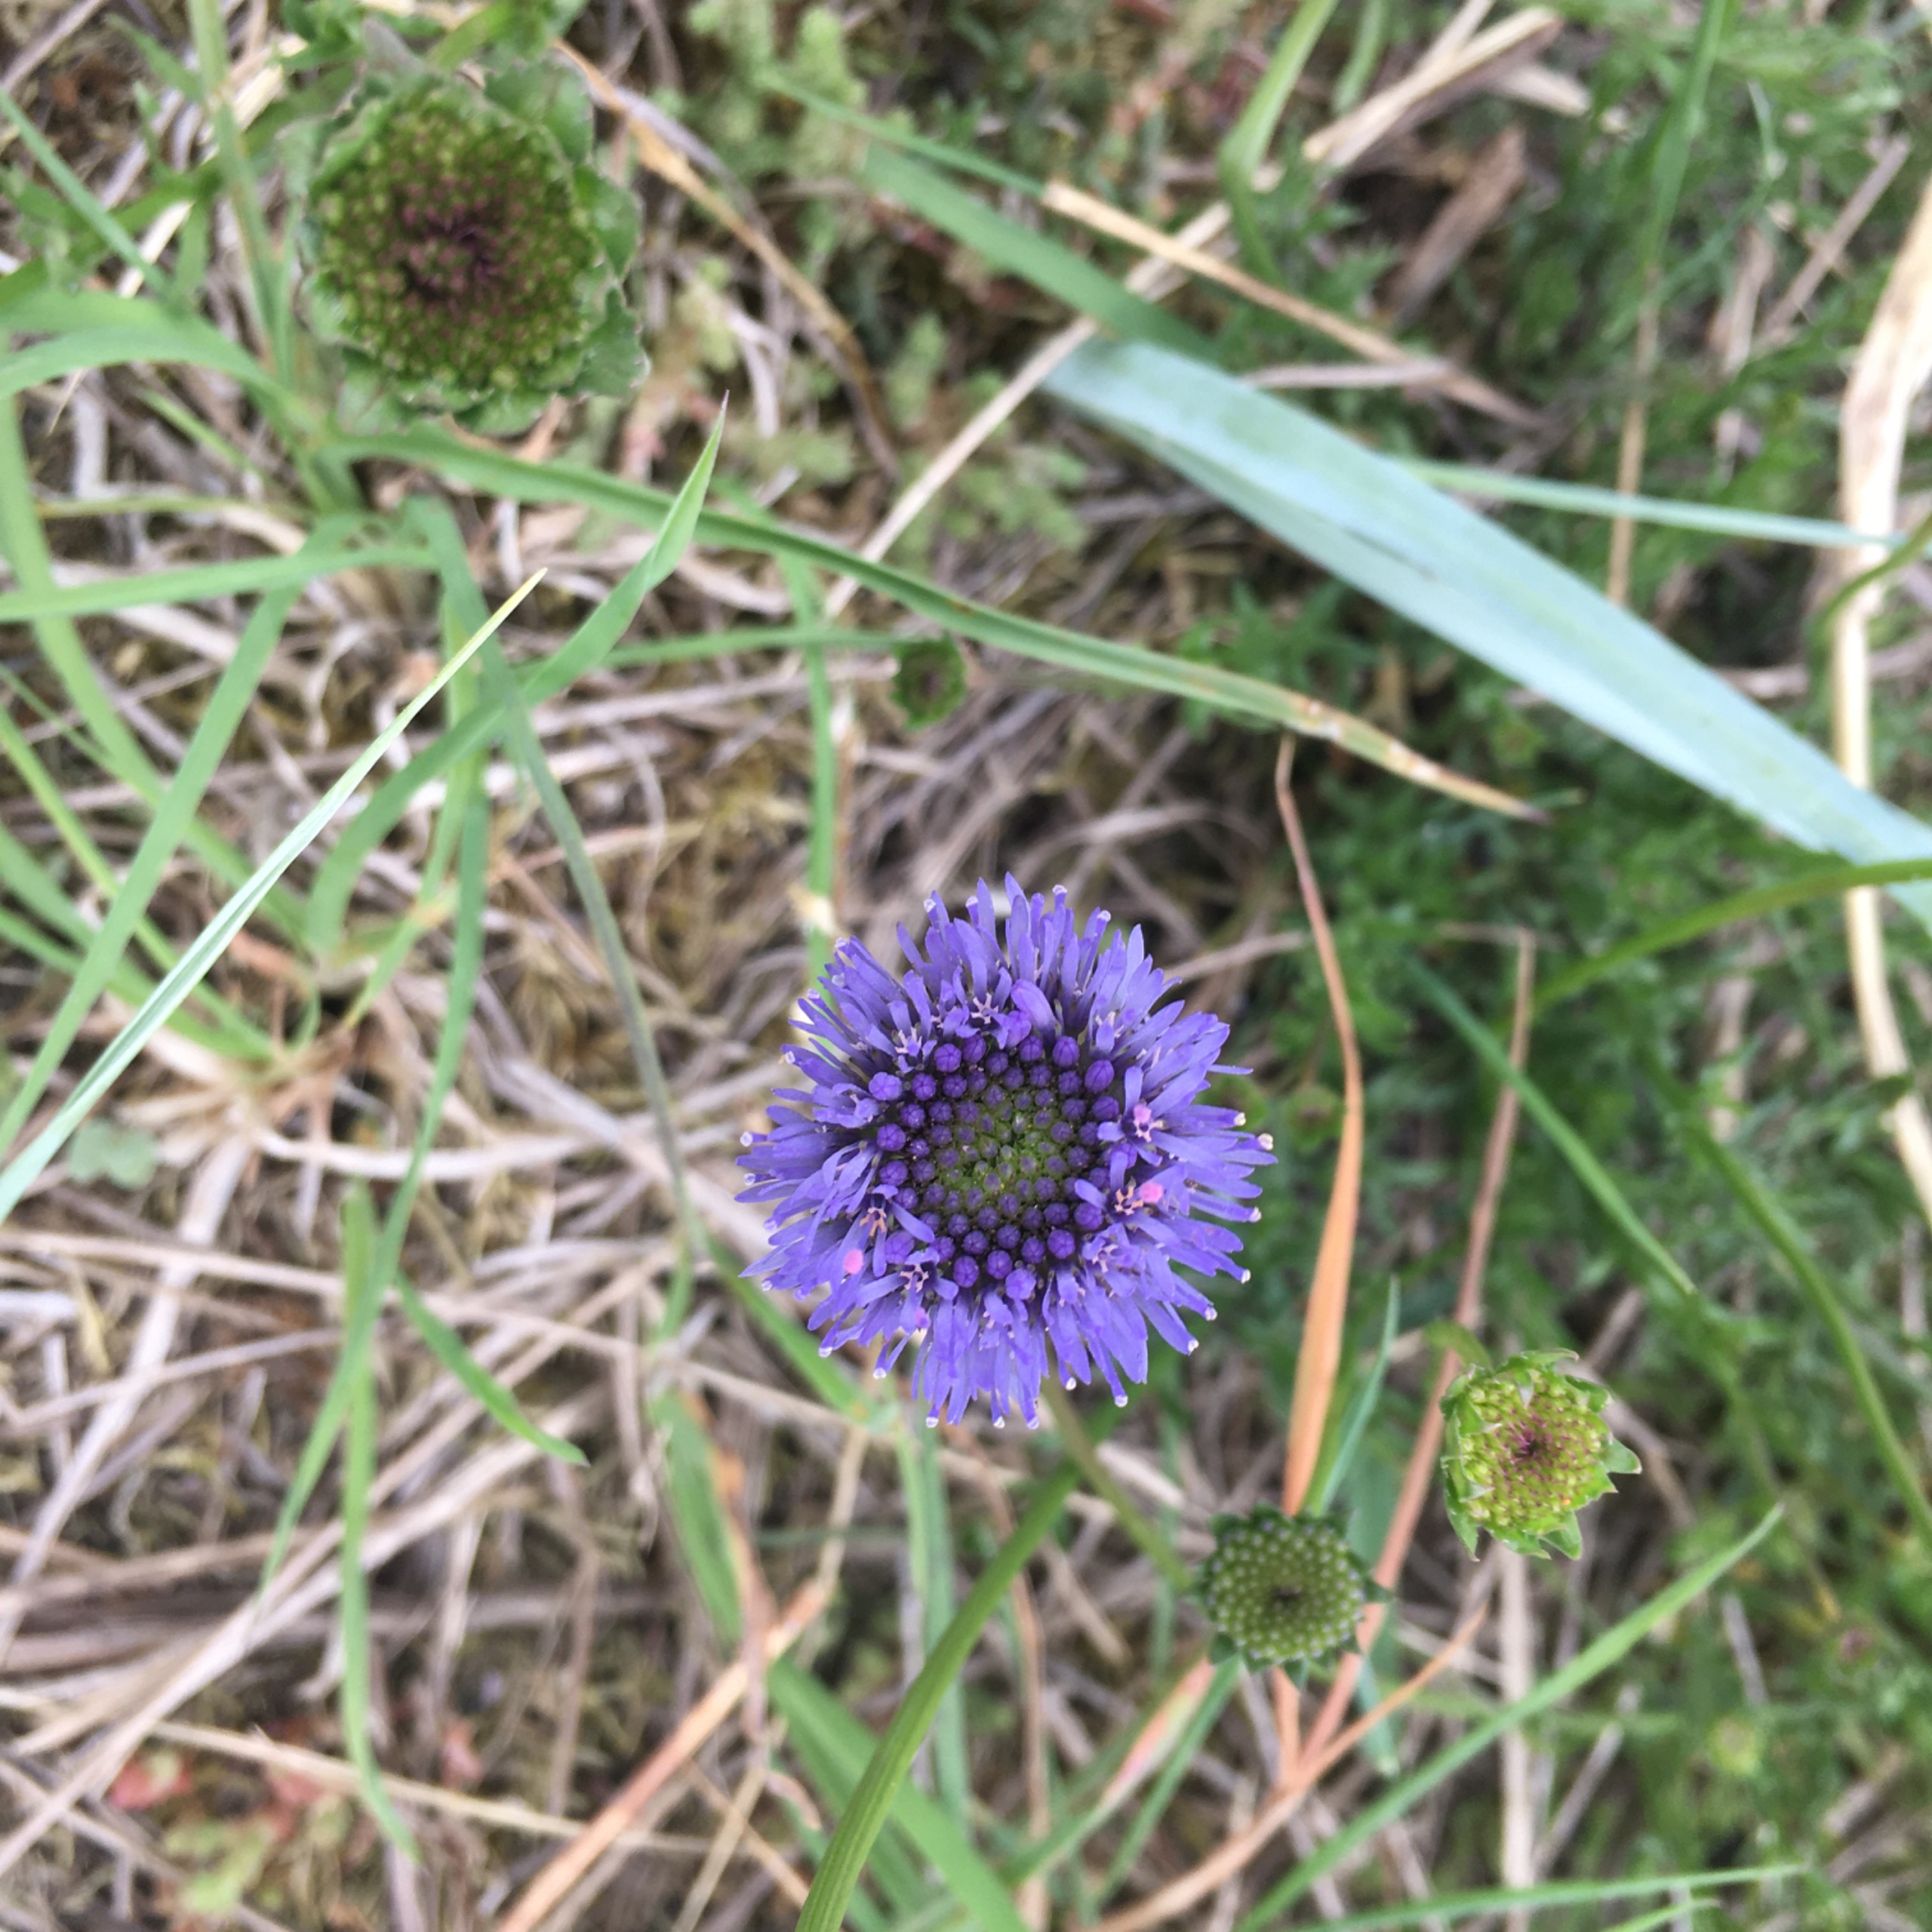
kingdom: Plantae
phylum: Tracheophyta
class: Magnoliopsida
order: Asterales
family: Campanulaceae
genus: Jasione
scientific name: Jasione montana
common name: Blåmunke
